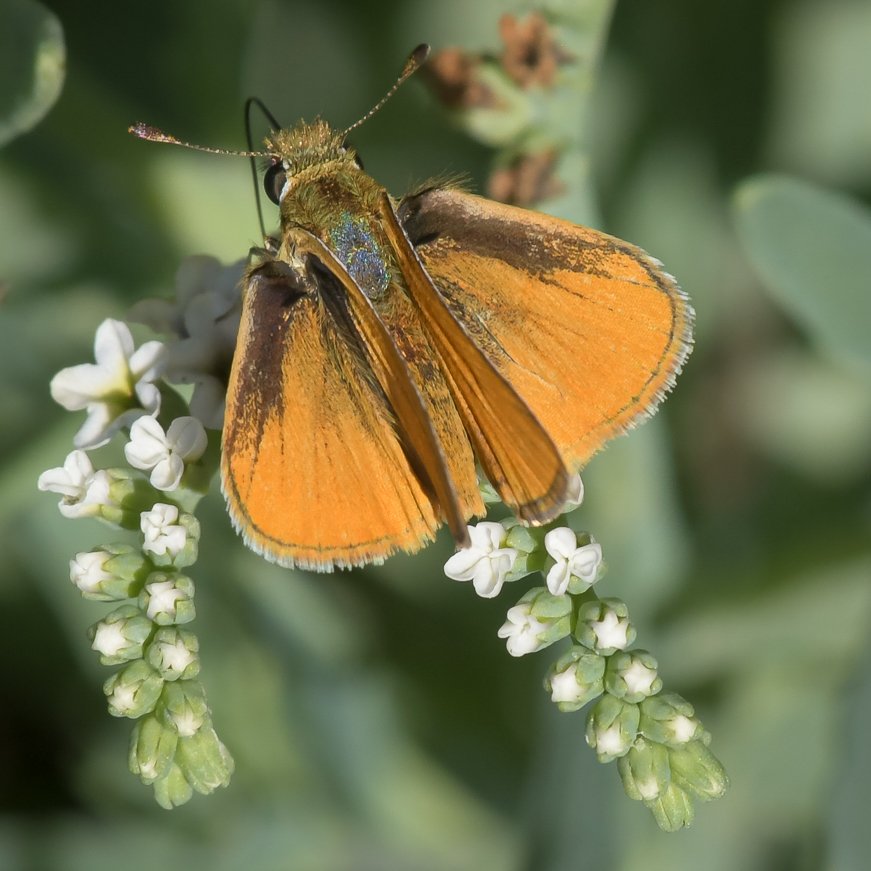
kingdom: Animalia
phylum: Arthropoda
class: Insecta
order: Lepidoptera
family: Hesperiidae
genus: Copaeodes
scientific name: Copaeodes aurantiaca
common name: Orange Skipperling
